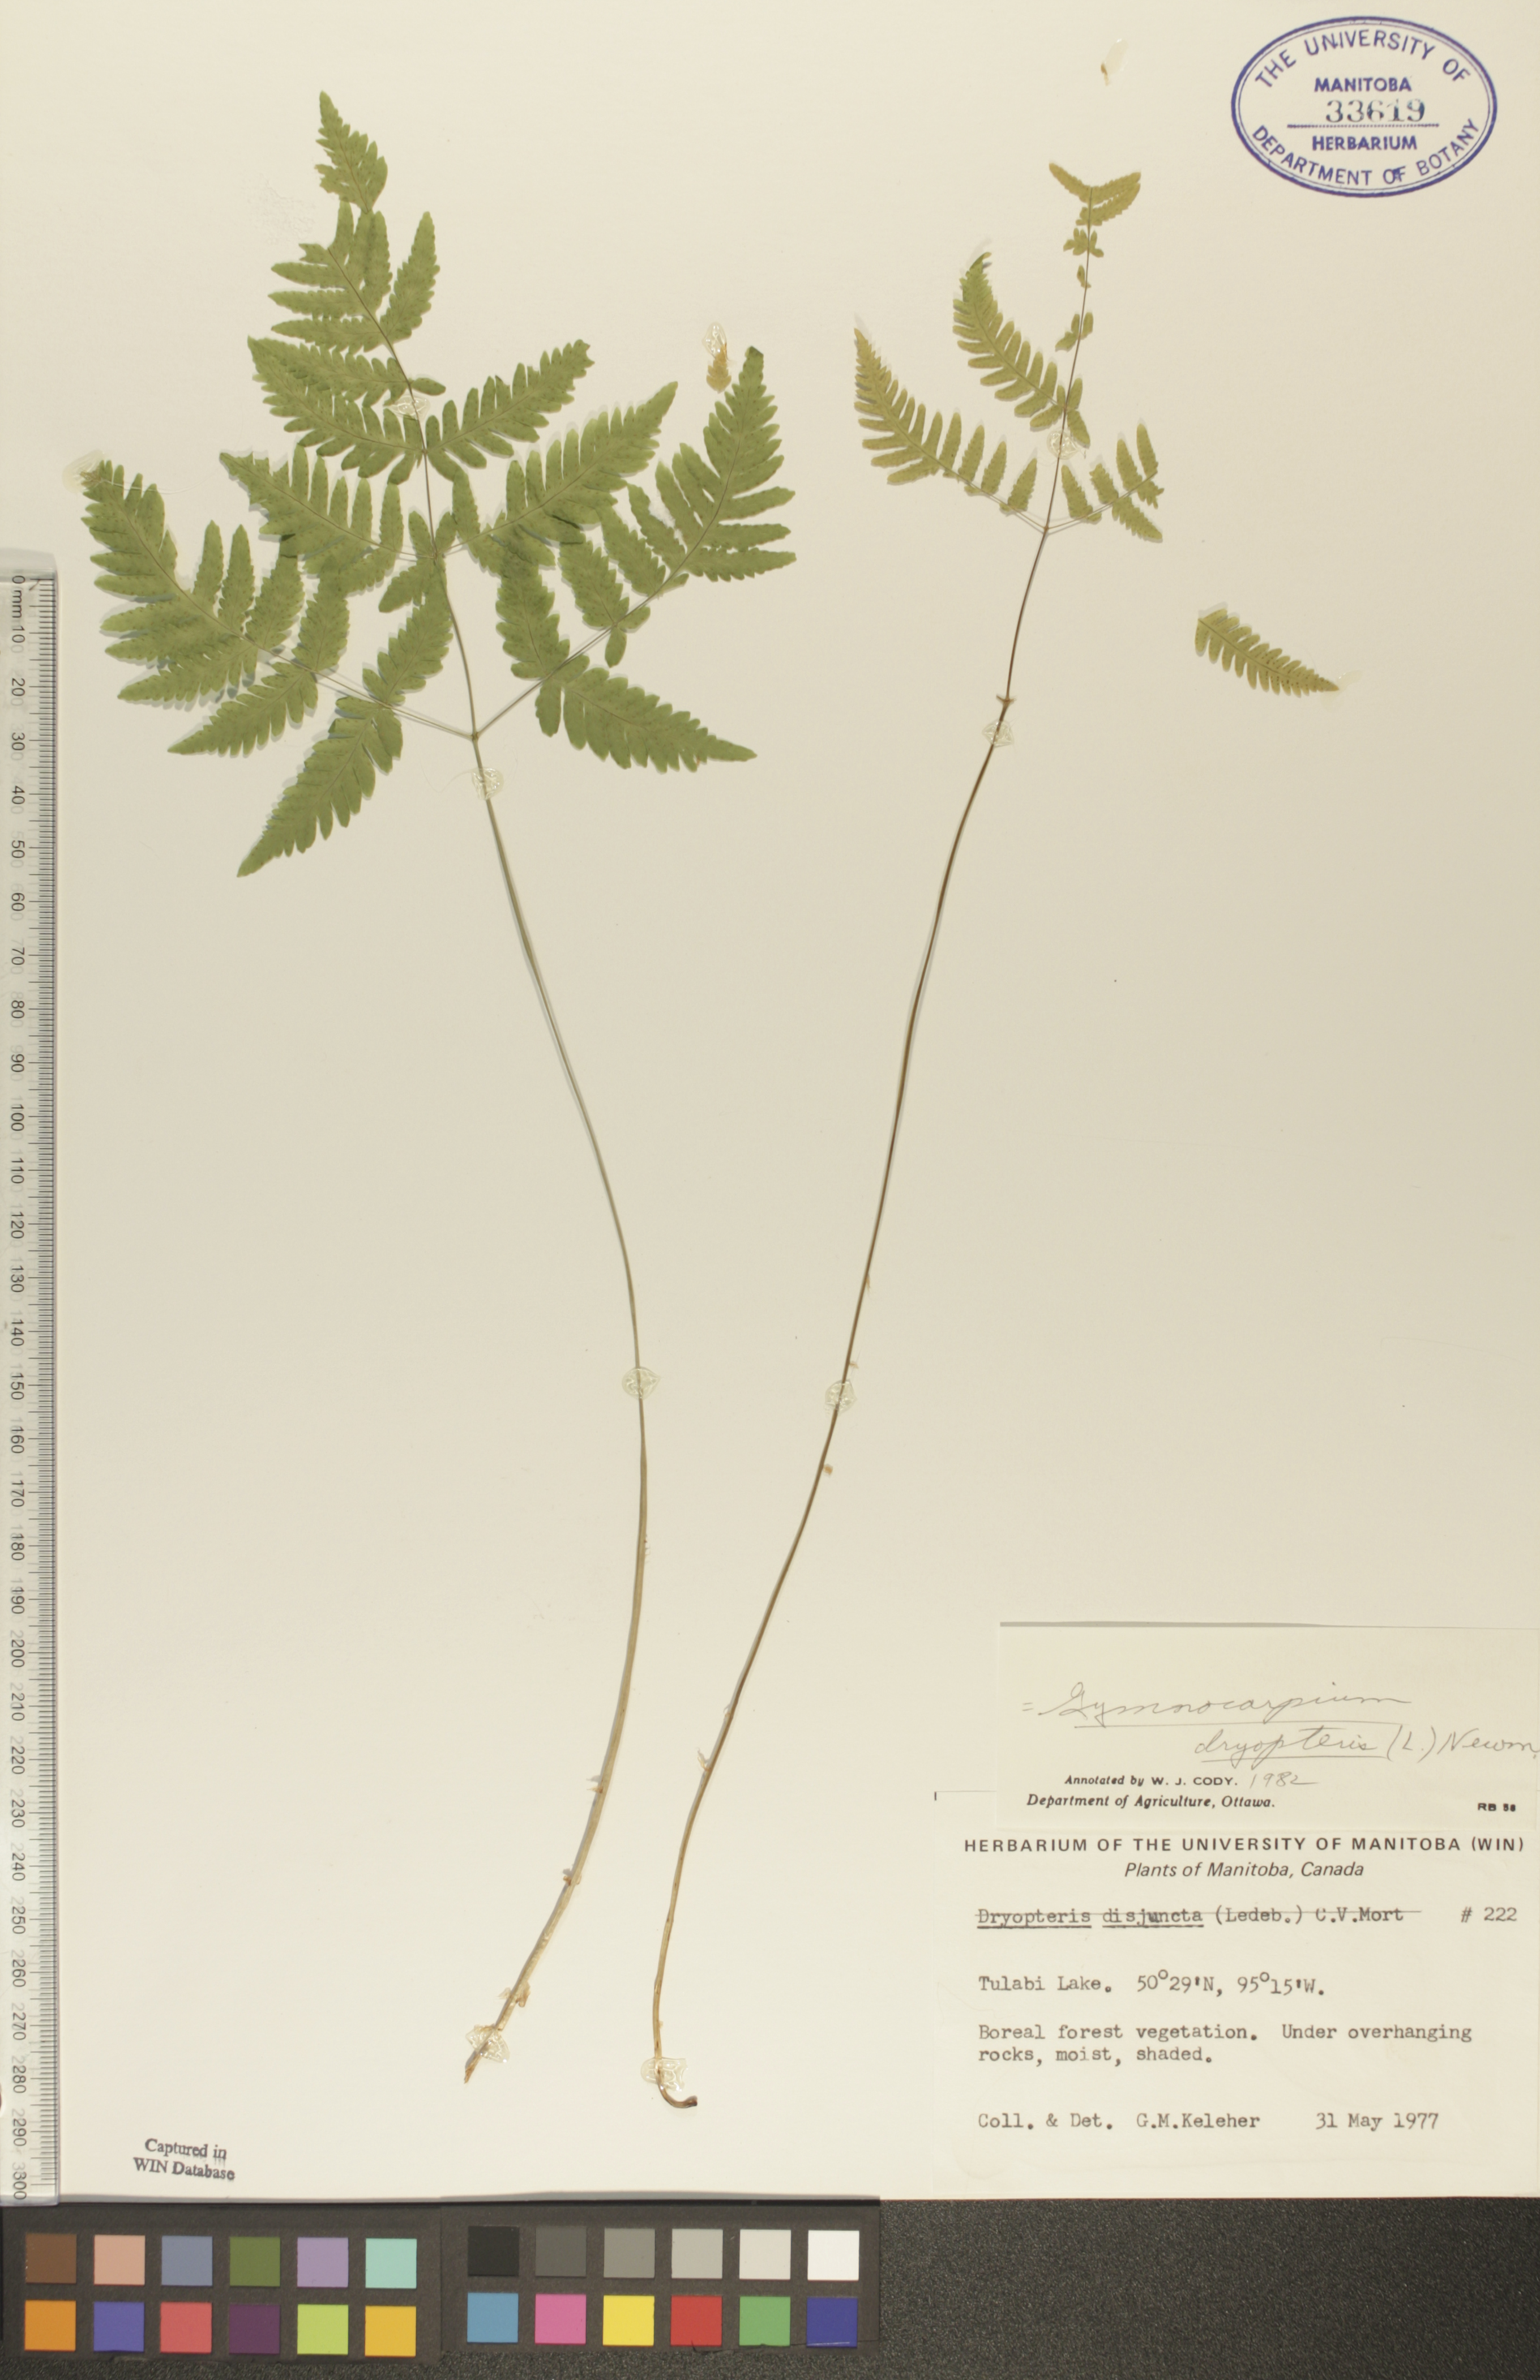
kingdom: Plantae
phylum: Tracheophyta
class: Polypodiopsida
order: Polypodiales
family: Cystopteridaceae
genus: Gymnocarpium
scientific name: Gymnocarpium dryopteris
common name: Oak fern
